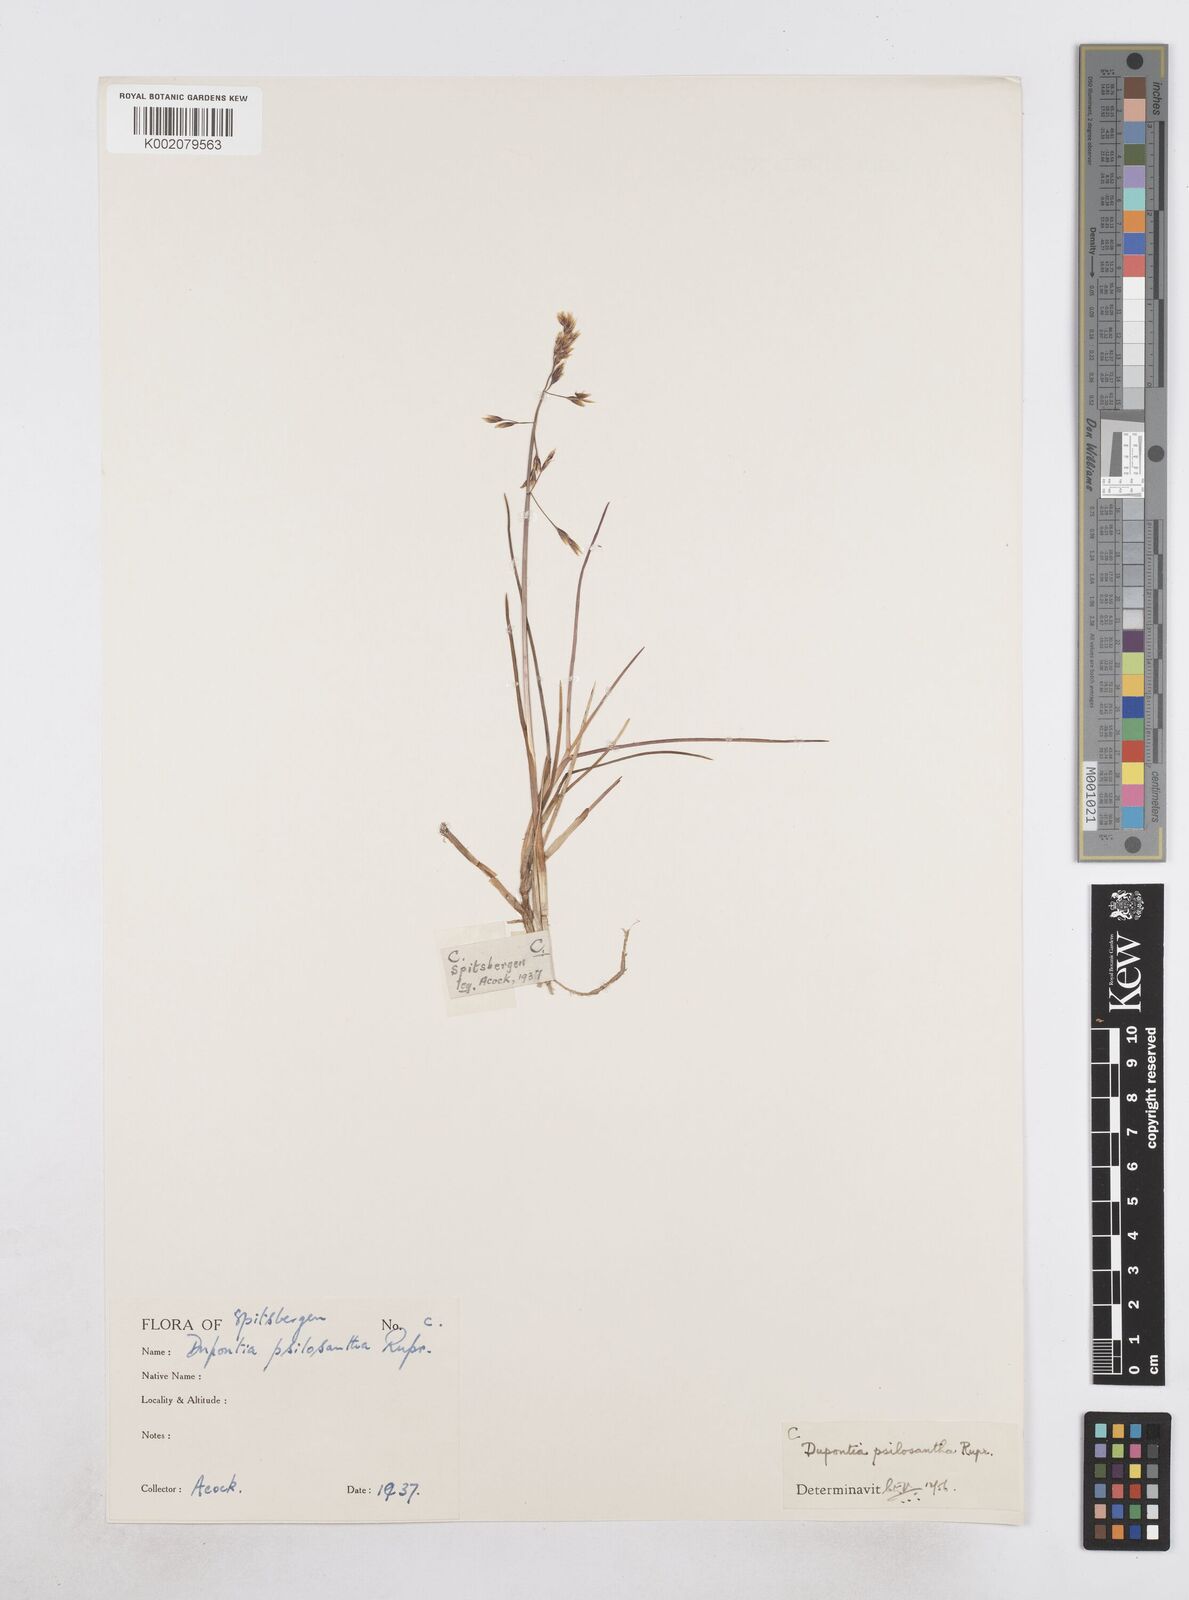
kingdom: Plantae
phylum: Tracheophyta
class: Liliopsida
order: Poales
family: Poaceae
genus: Dupontia
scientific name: Dupontia fisheri
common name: Tundra grass
